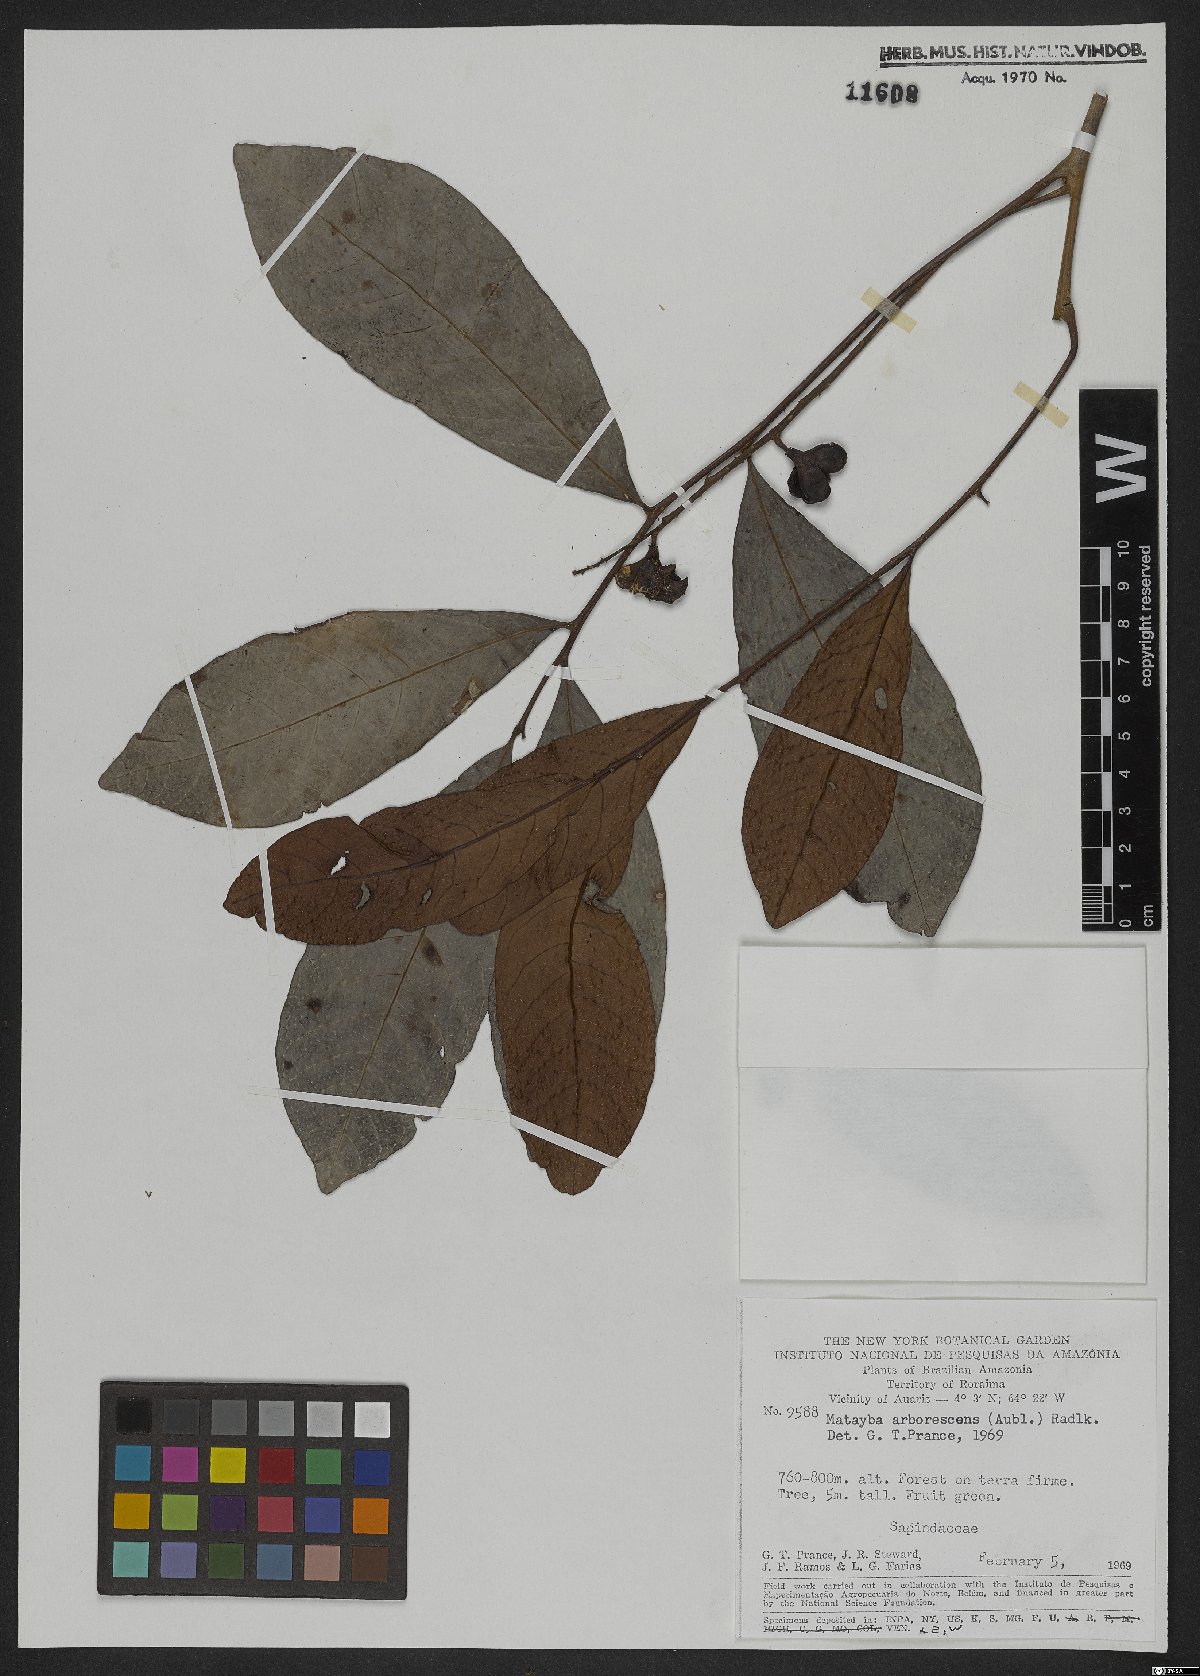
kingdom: Plantae
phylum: Tracheophyta
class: Magnoliopsida
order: Sapindales
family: Sapindaceae
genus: Matayba
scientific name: Matayba arborescens
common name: Arborescent matayba
